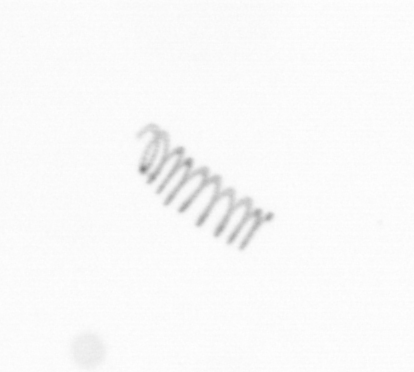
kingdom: Chromista
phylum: Ochrophyta
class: Bacillariophyceae
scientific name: Bacillariophyceae
